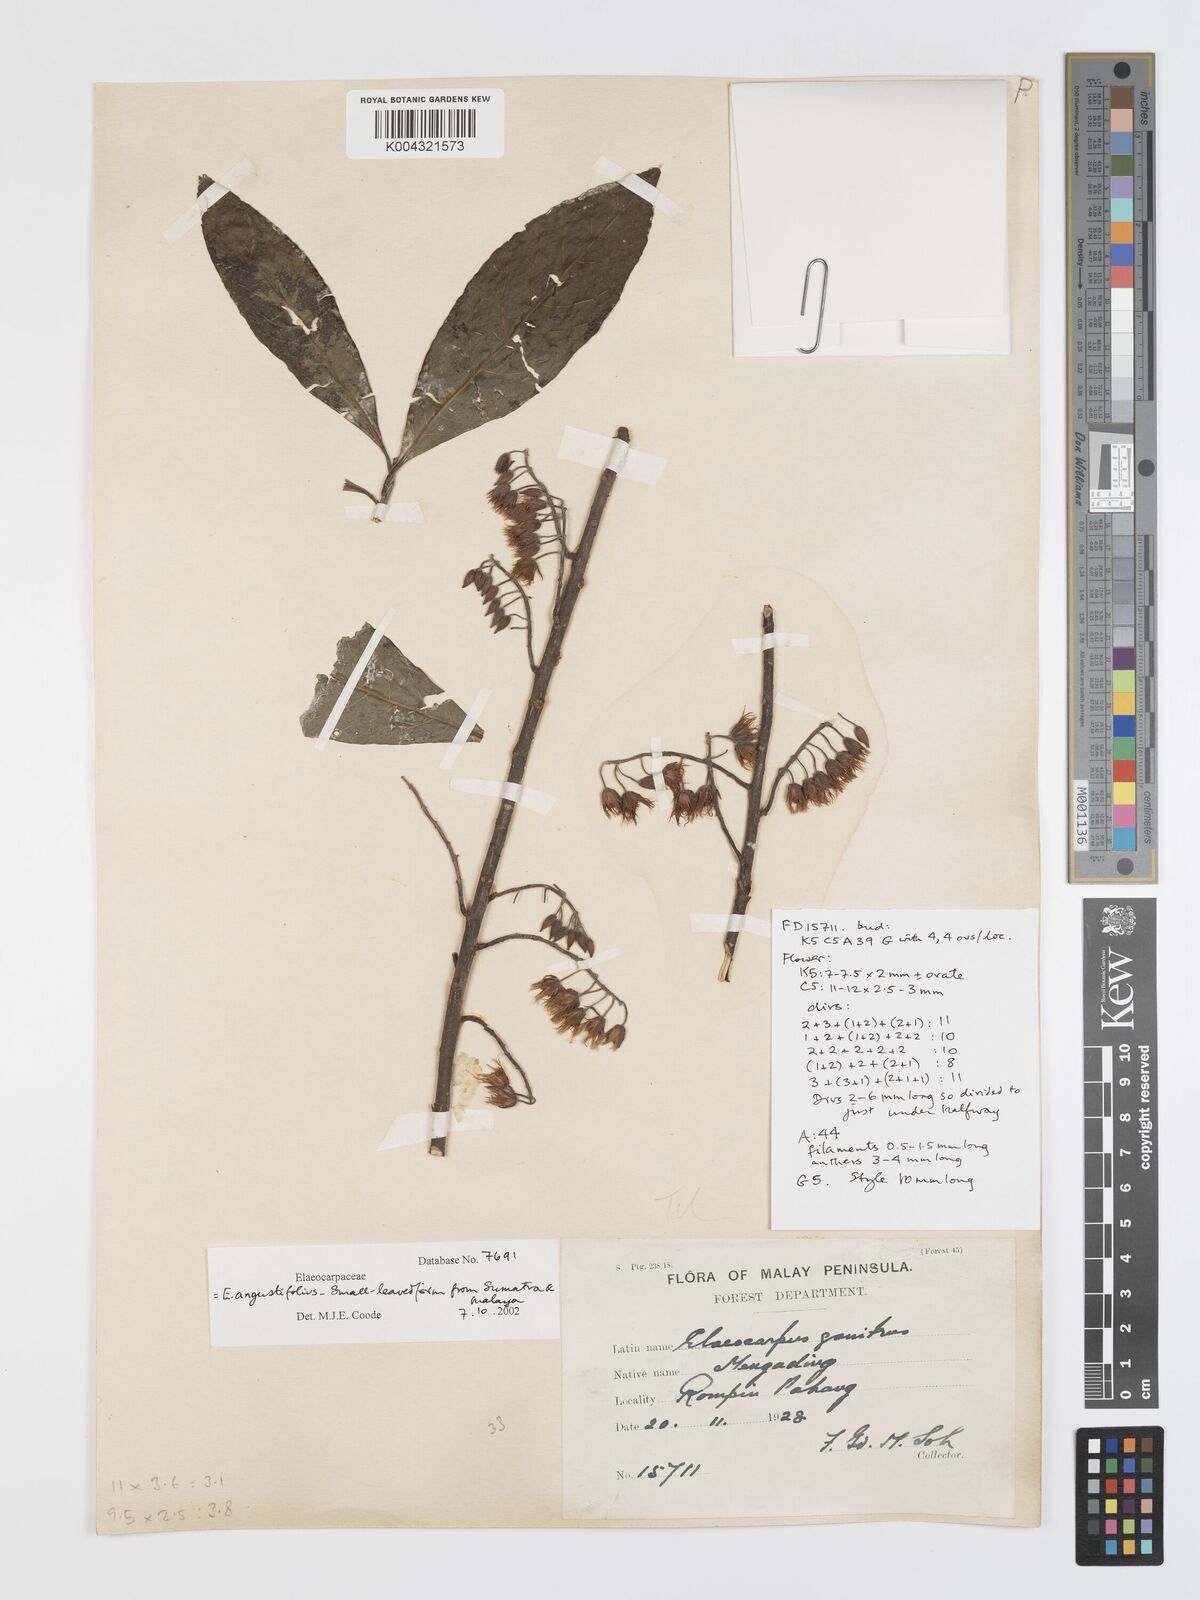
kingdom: Plantae
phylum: Tracheophyta
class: Magnoliopsida
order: Oxalidales
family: Elaeocarpaceae
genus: Elaeocarpus
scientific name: Elaeocarpus sphaericus
